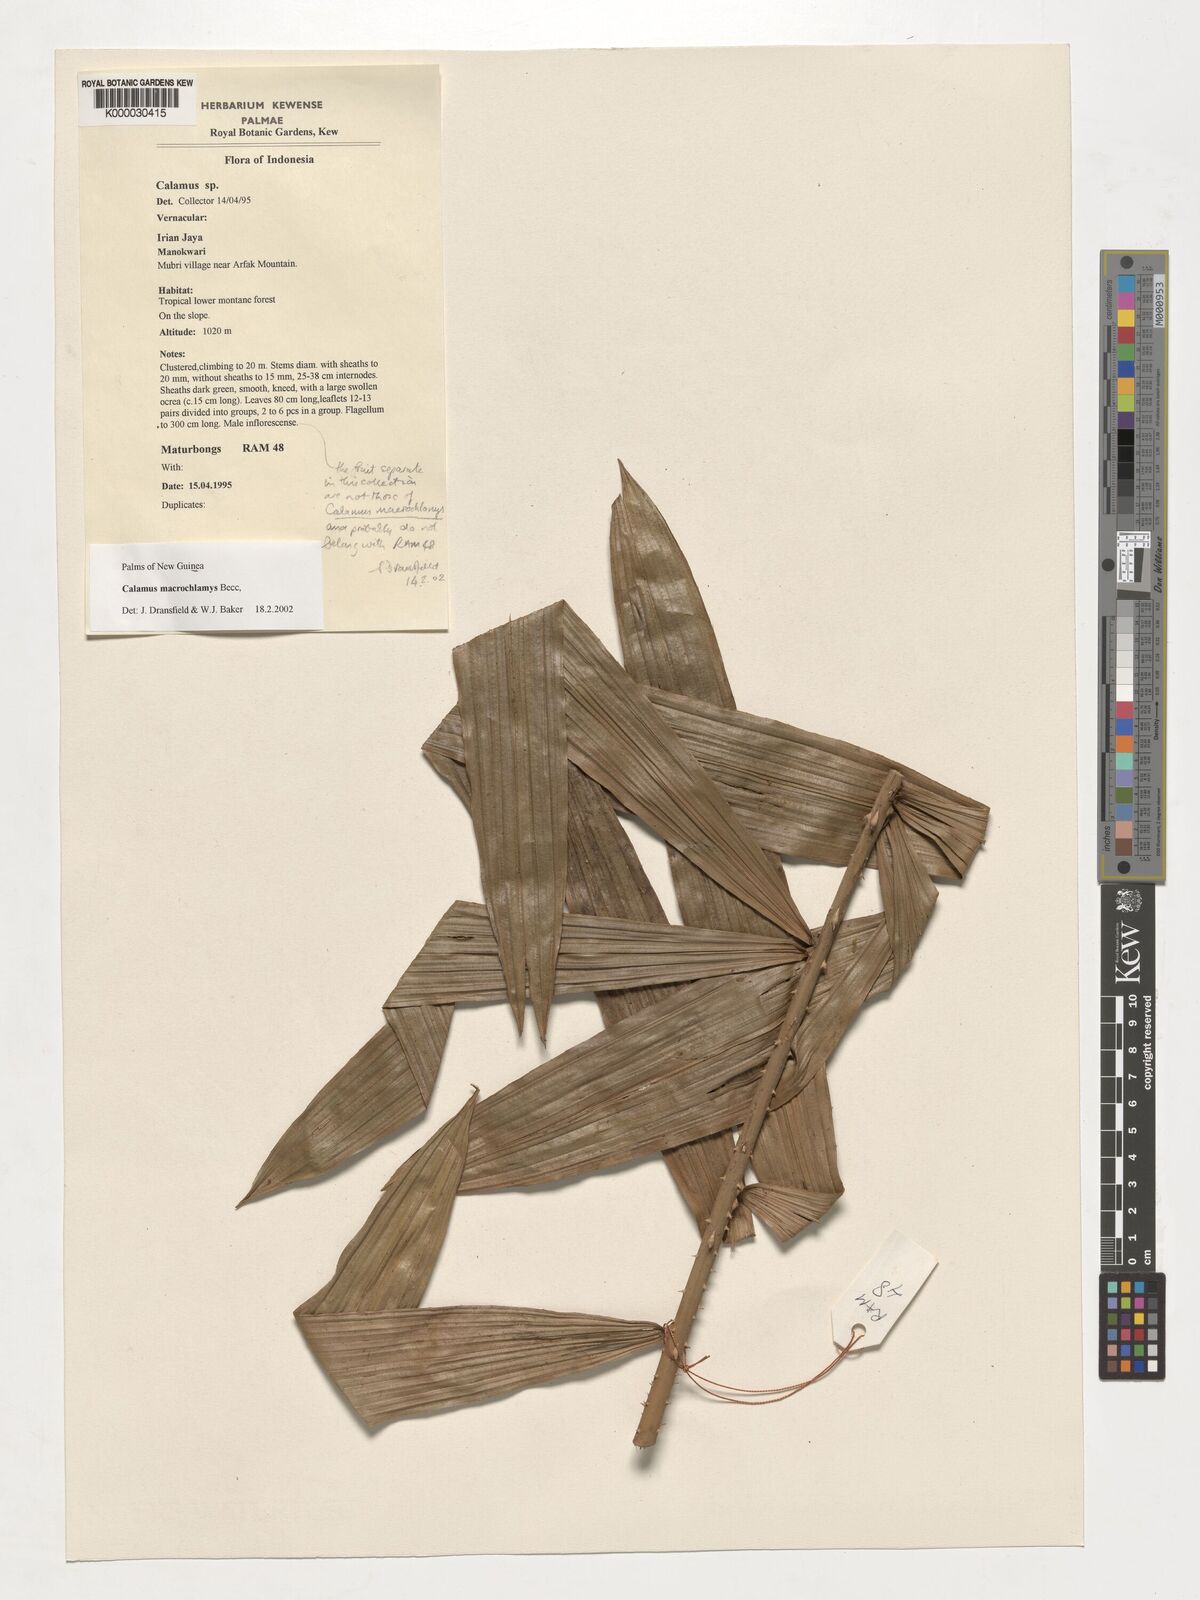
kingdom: Plantae
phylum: Tracheophyta
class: Liliopsida
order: Arecales
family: Arecaceae
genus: Calamus
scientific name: Calamus macrochlamys
